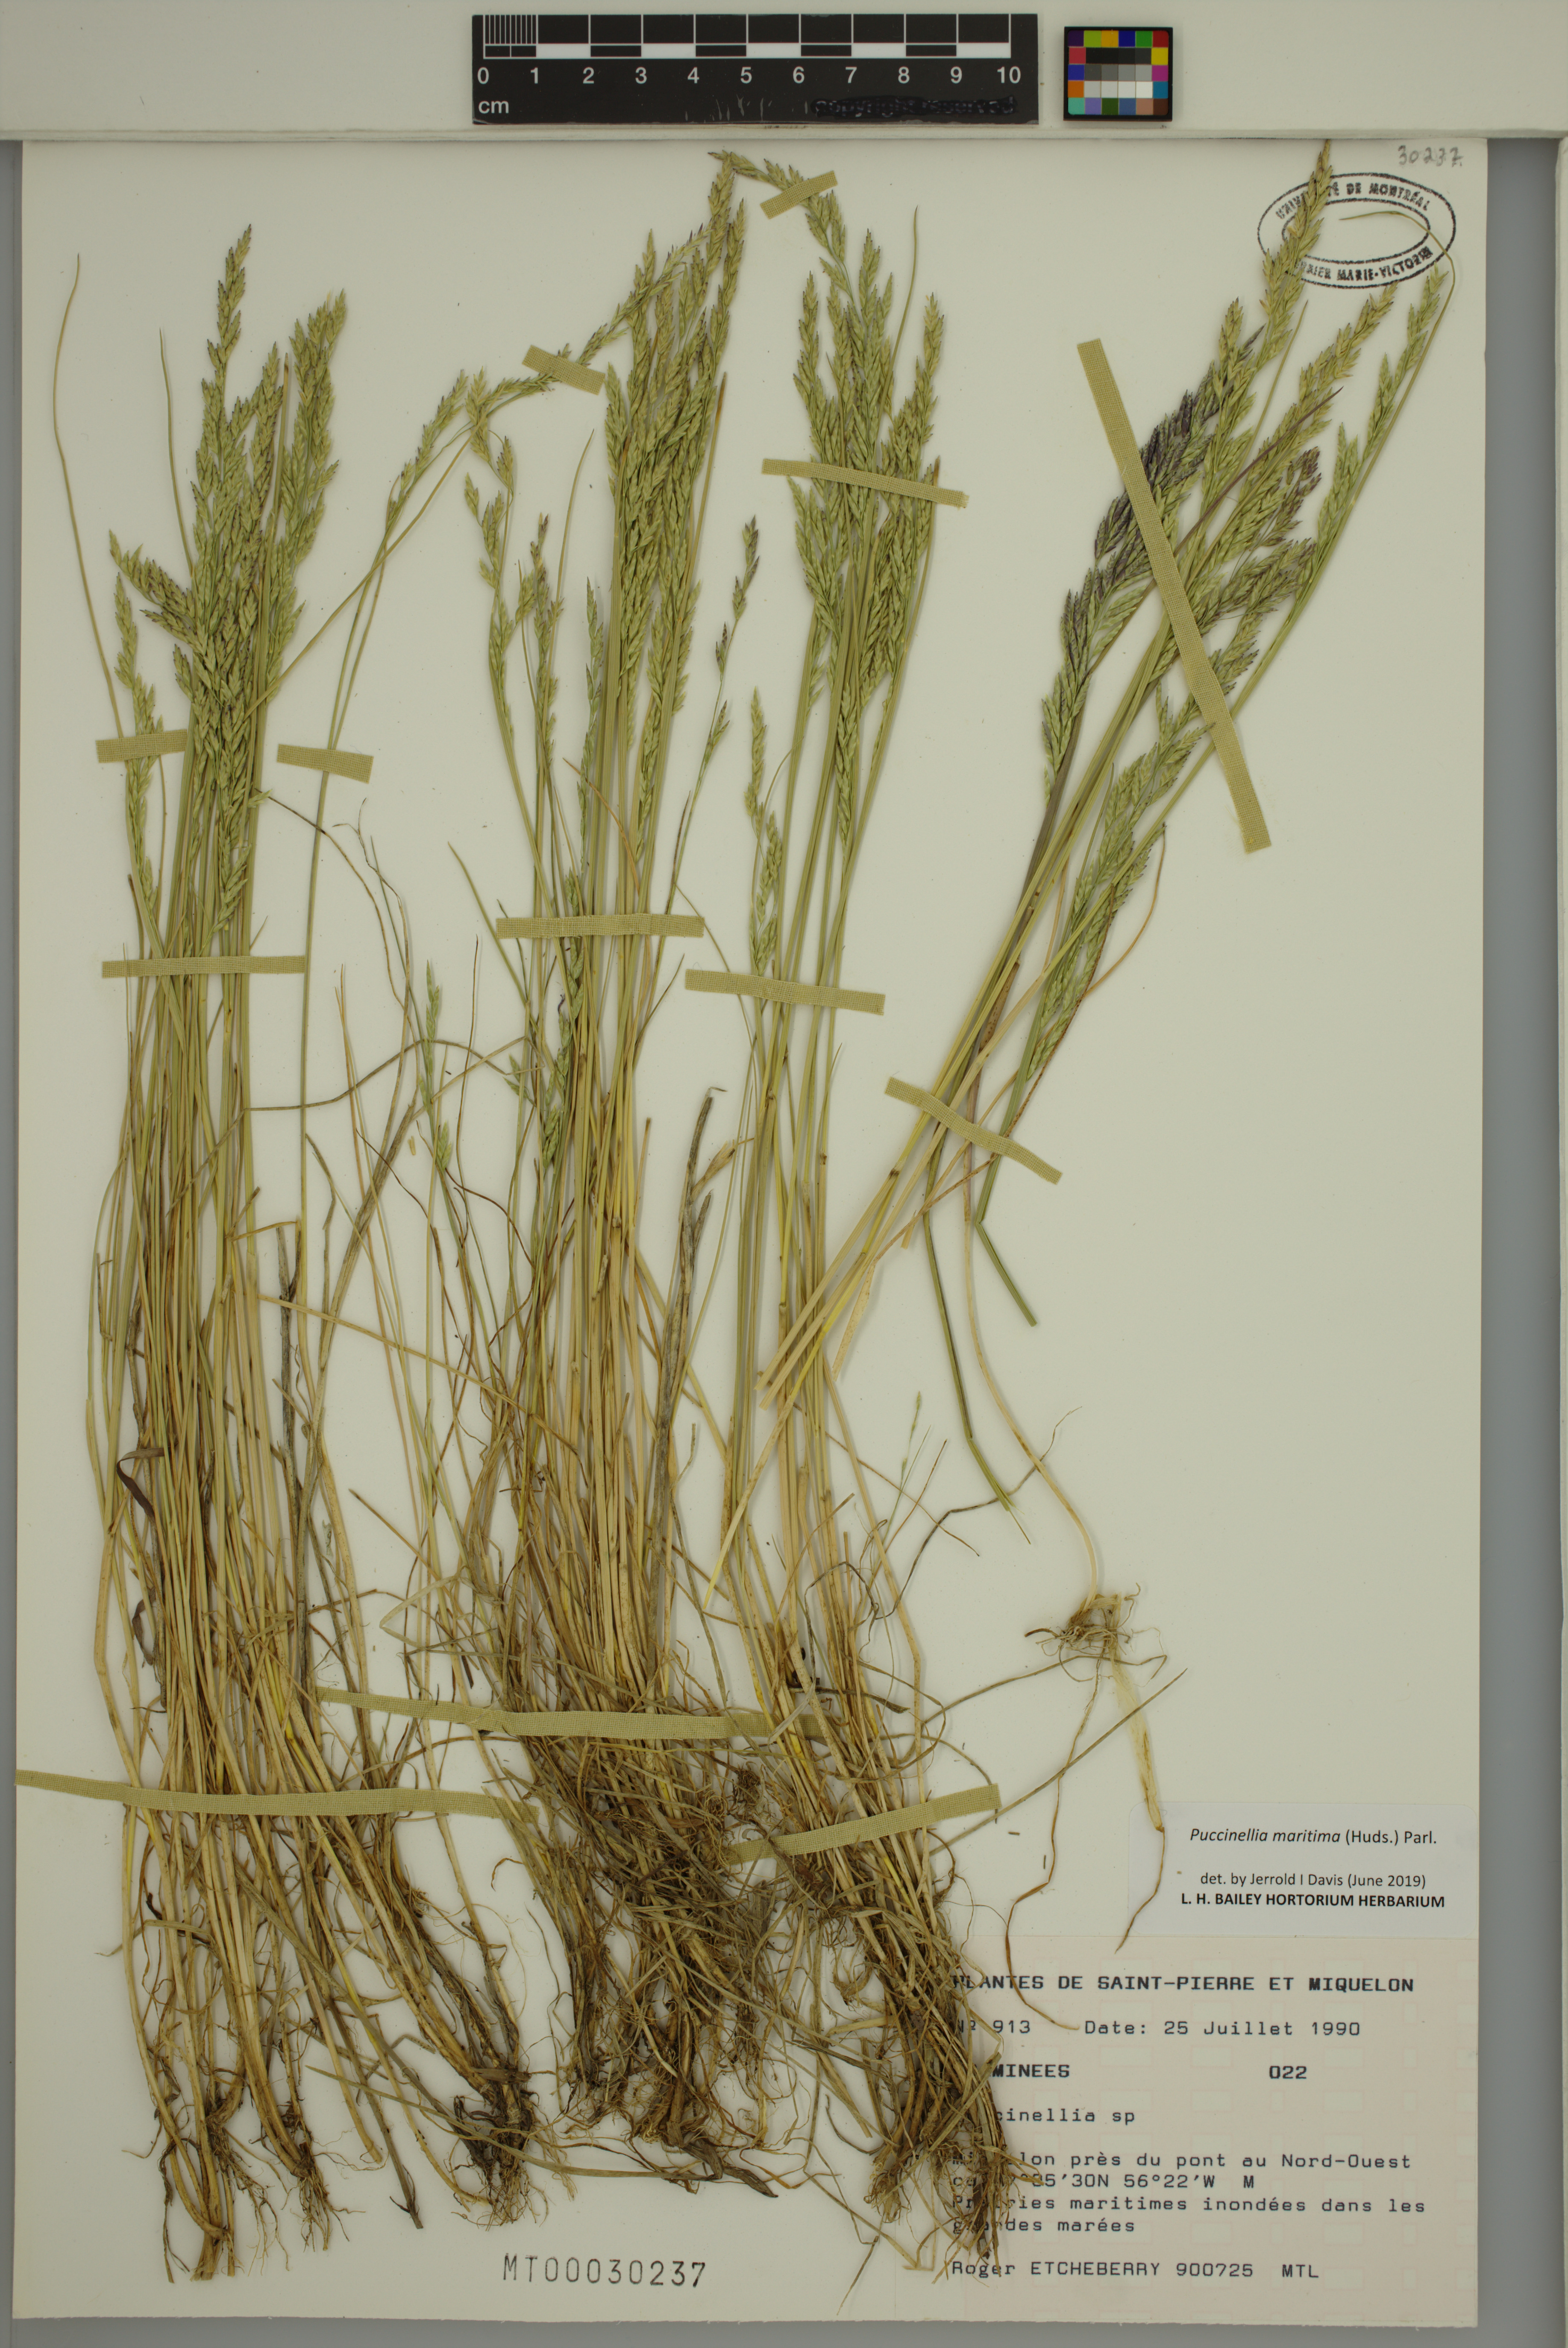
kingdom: Plantae
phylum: Tracheophyta
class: Liliopsida
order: Poales
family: Poaceae
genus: Puccinellia
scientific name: Puccinellia maritima
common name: Common saltmarsh grass
